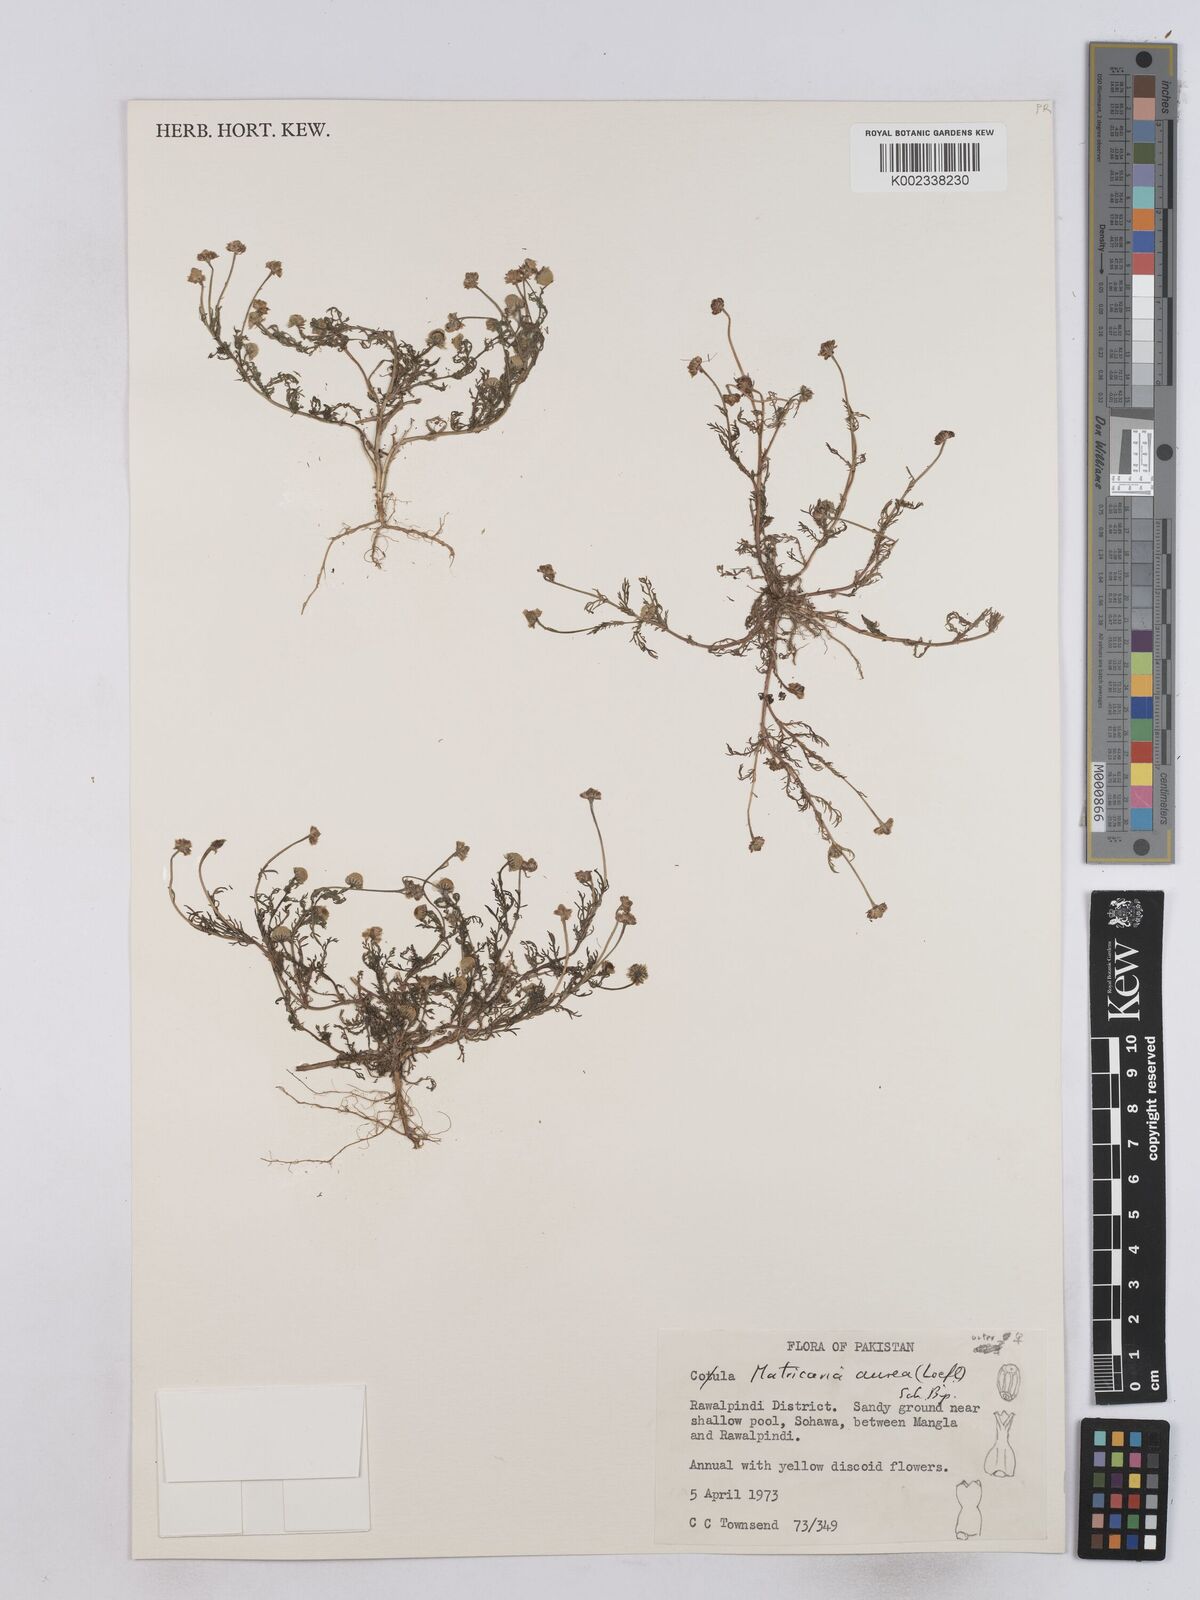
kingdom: Plantae
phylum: Tracheophyta
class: Magnoliopsida
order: Asterales
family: Asteraceae
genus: Matricaria
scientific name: Matricaria aurea
